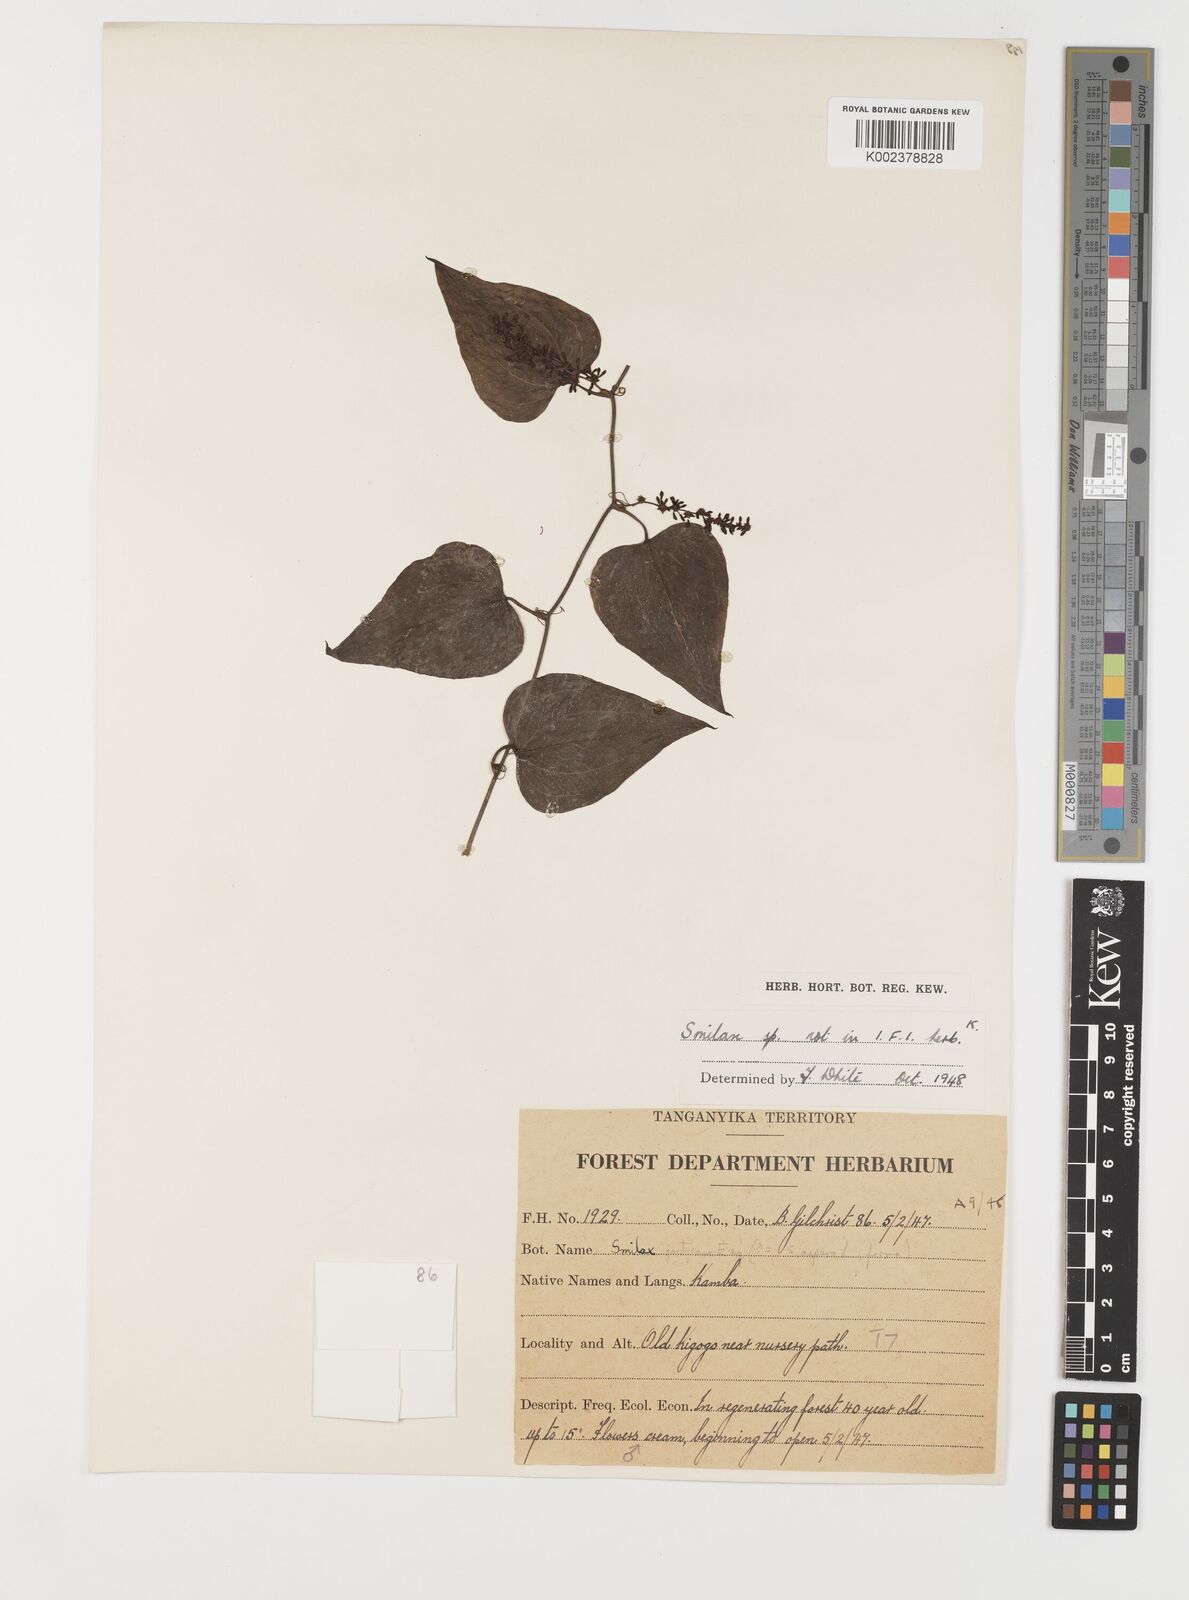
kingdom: Plantae
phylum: Tracheophyta
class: Liliopsida
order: Liliales
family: Smilacaceae
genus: Smilax
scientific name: Smilax aspera
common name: Common smilax
